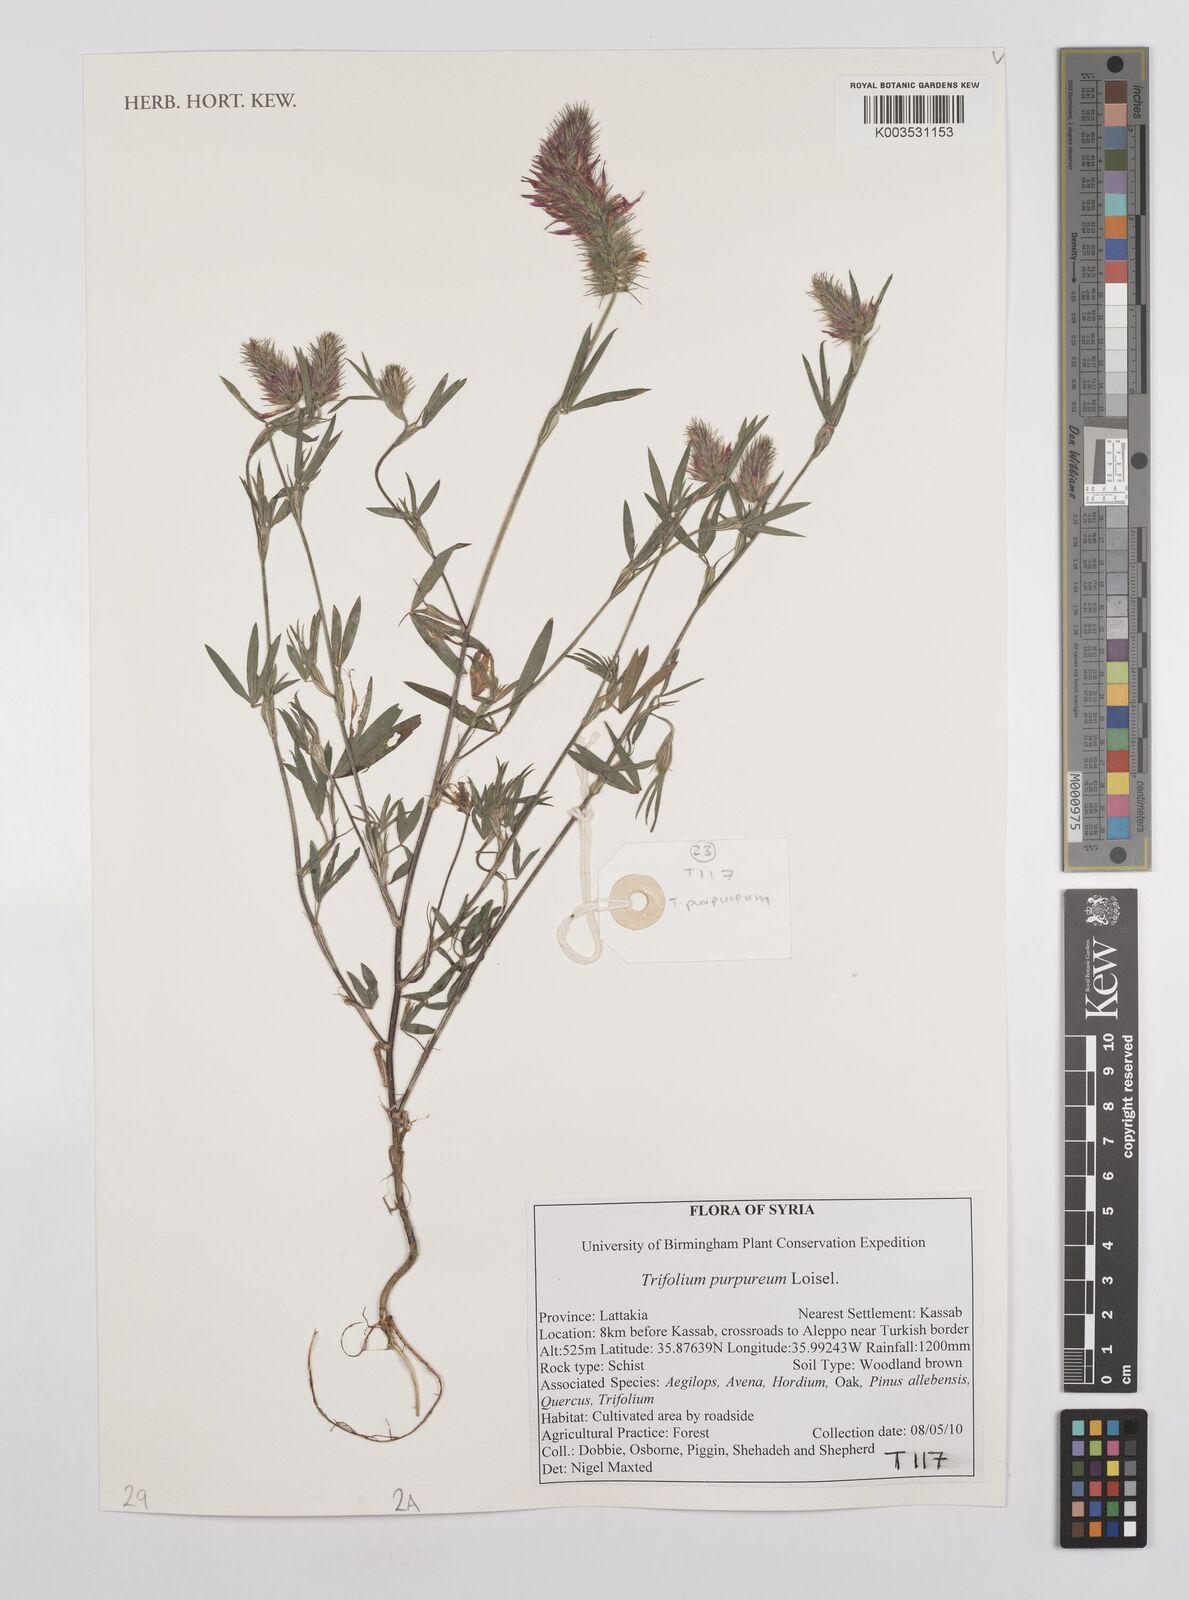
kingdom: Plantae
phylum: Tracheophyta
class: Magnoliopsida
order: Fabales
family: Fabaceae
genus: Trifolium
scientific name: Trifolium purpureum
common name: Purple clover
